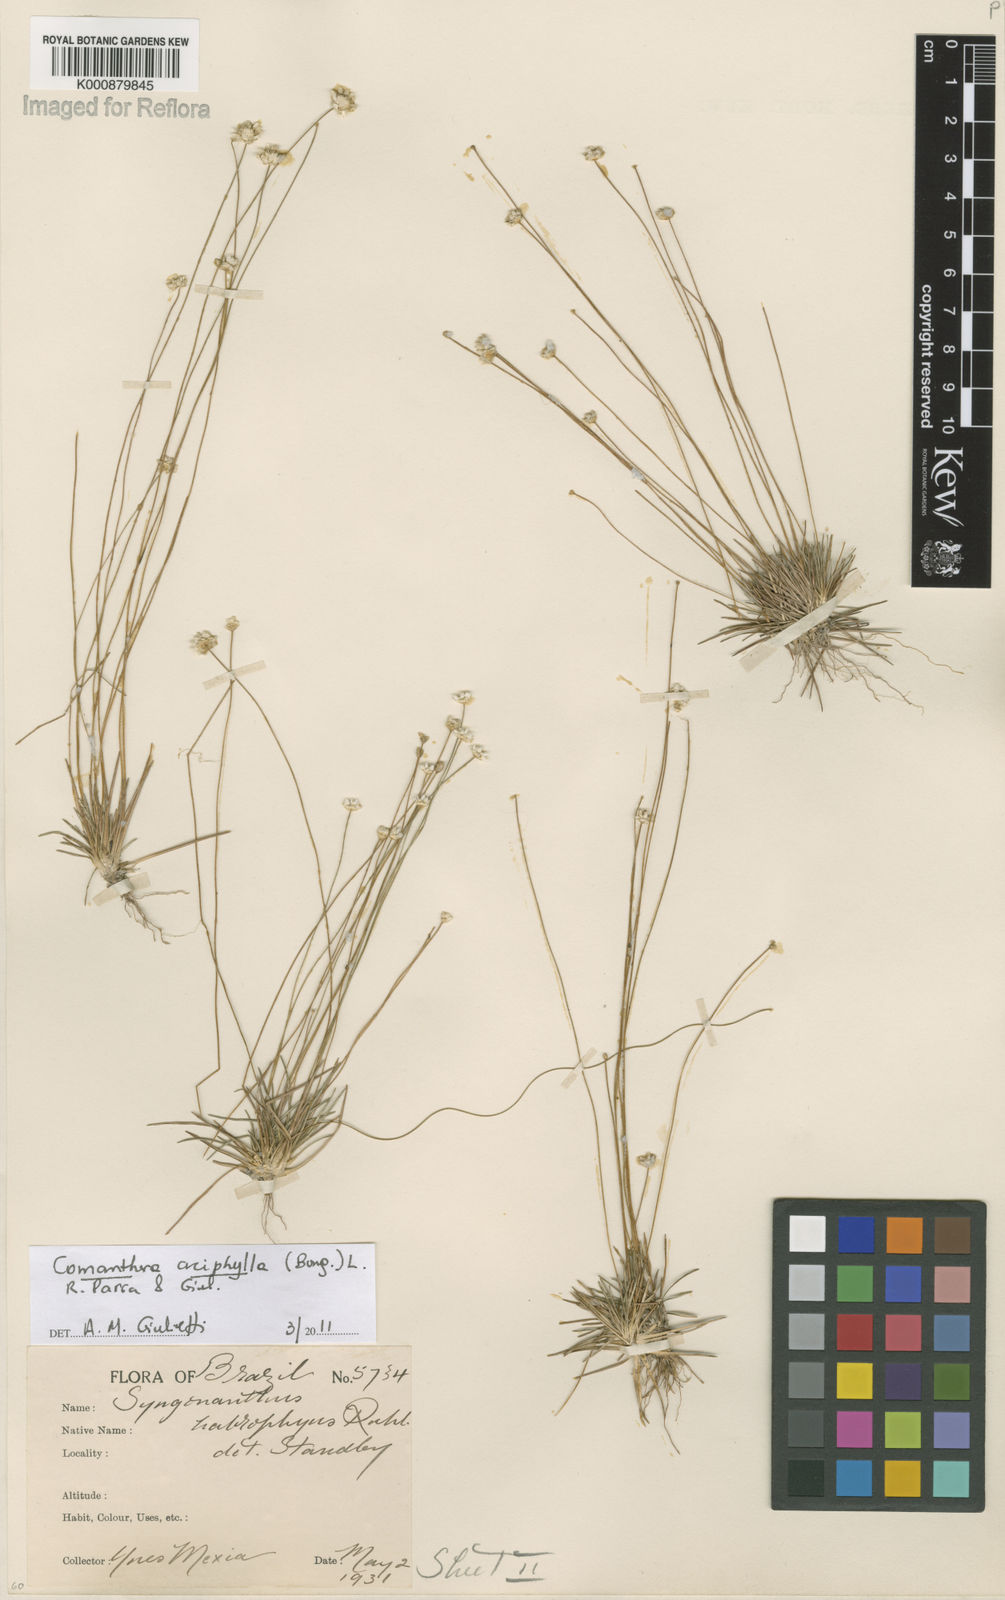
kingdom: Plantae
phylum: Tracheophyta
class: Liliopsida
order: Poales
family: Eriocaulaceae
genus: Comanthera
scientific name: Comanthera aciphylla
